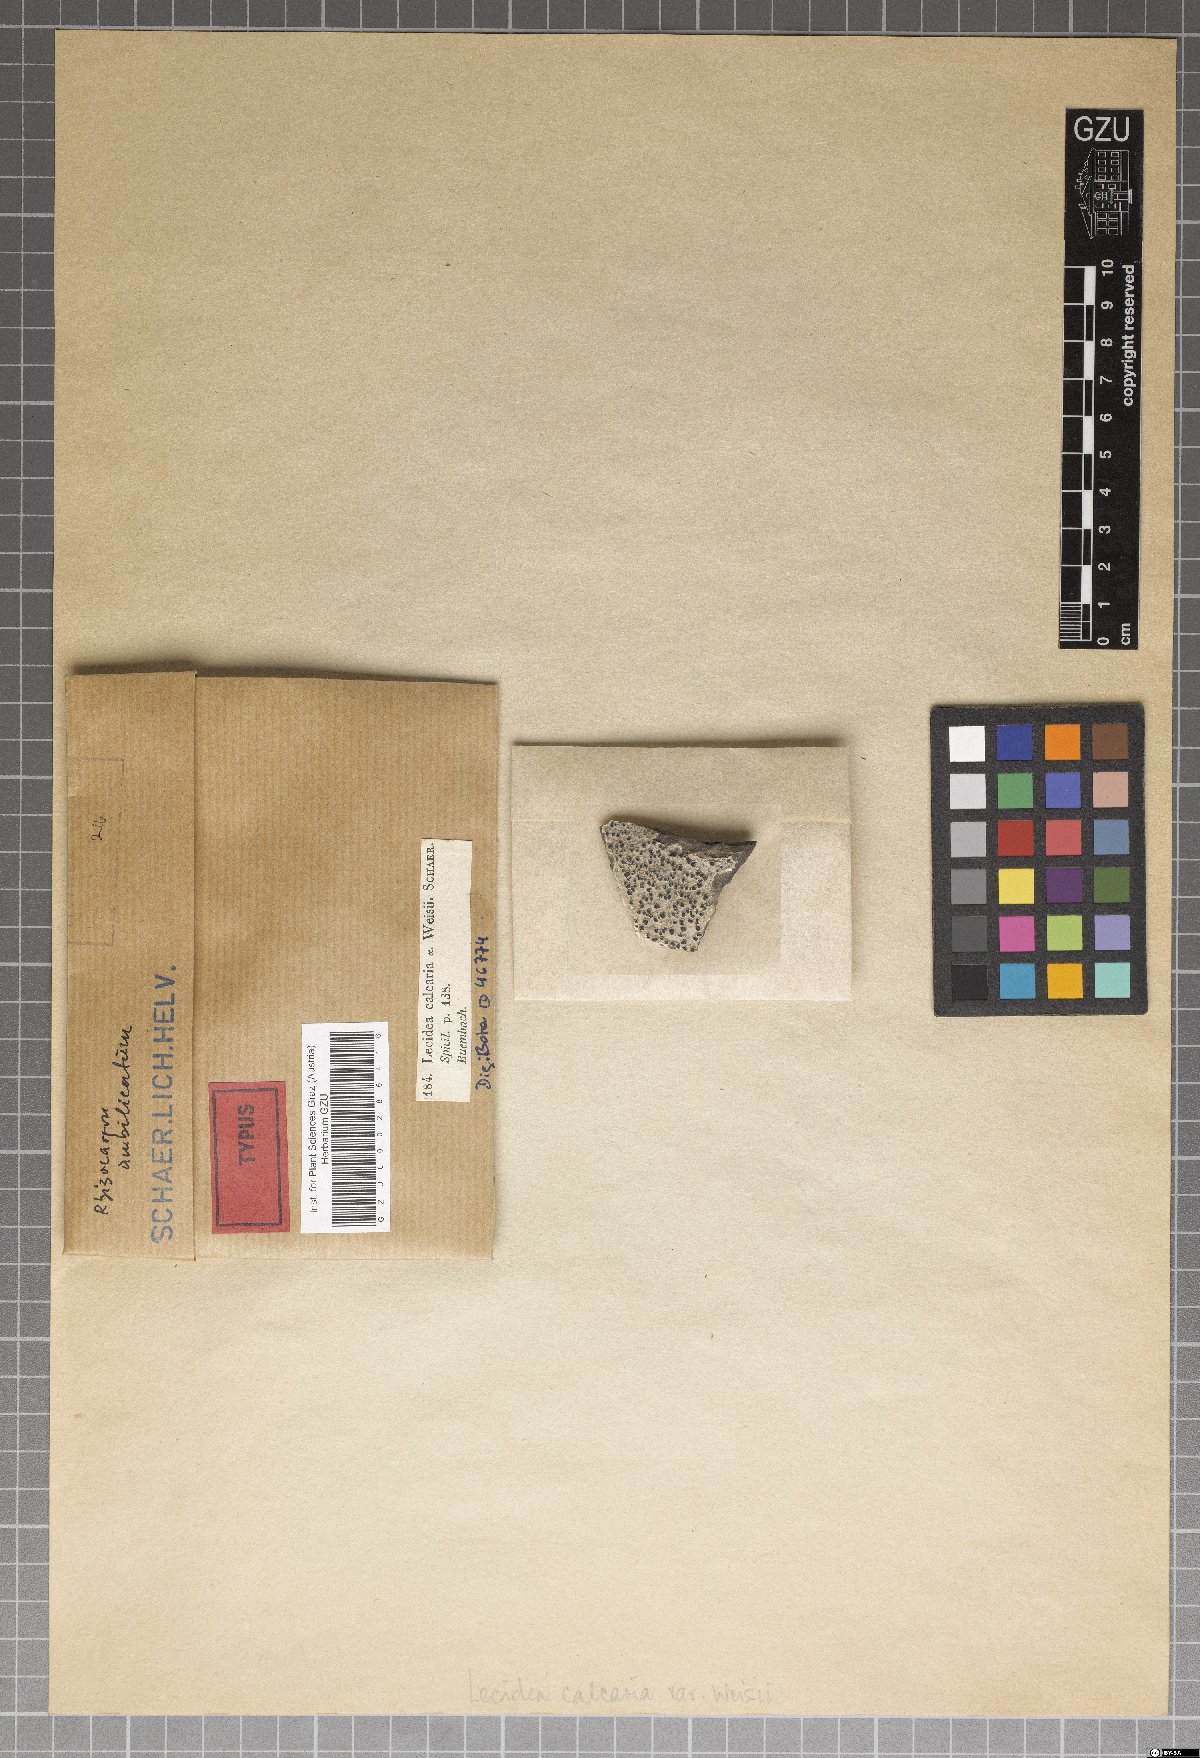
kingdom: Fungi
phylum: Ascomycota
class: Lecanoromycetes
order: Pertusariales
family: Megasporaceae
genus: Circinaria
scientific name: Circinaria calcarea
